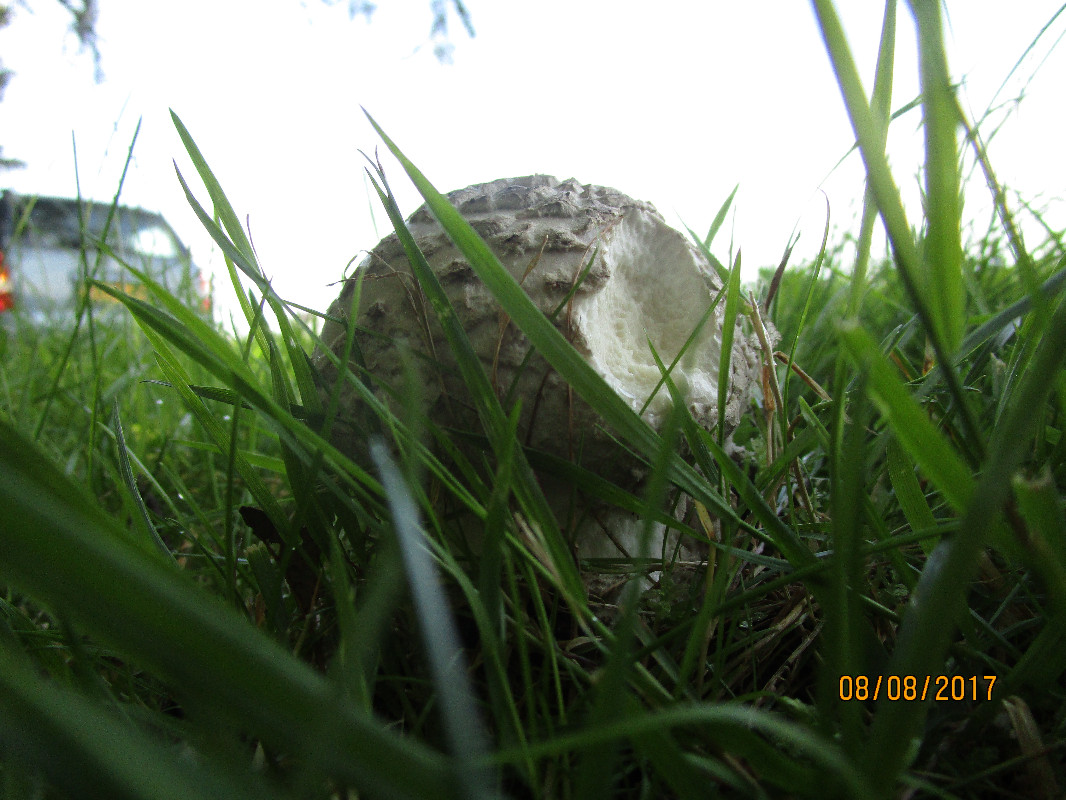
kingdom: Fungi
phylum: Basidiomycota
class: Agaricomycetes
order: Agaricales
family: Amanitaceae
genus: Amanita
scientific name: Amanita
